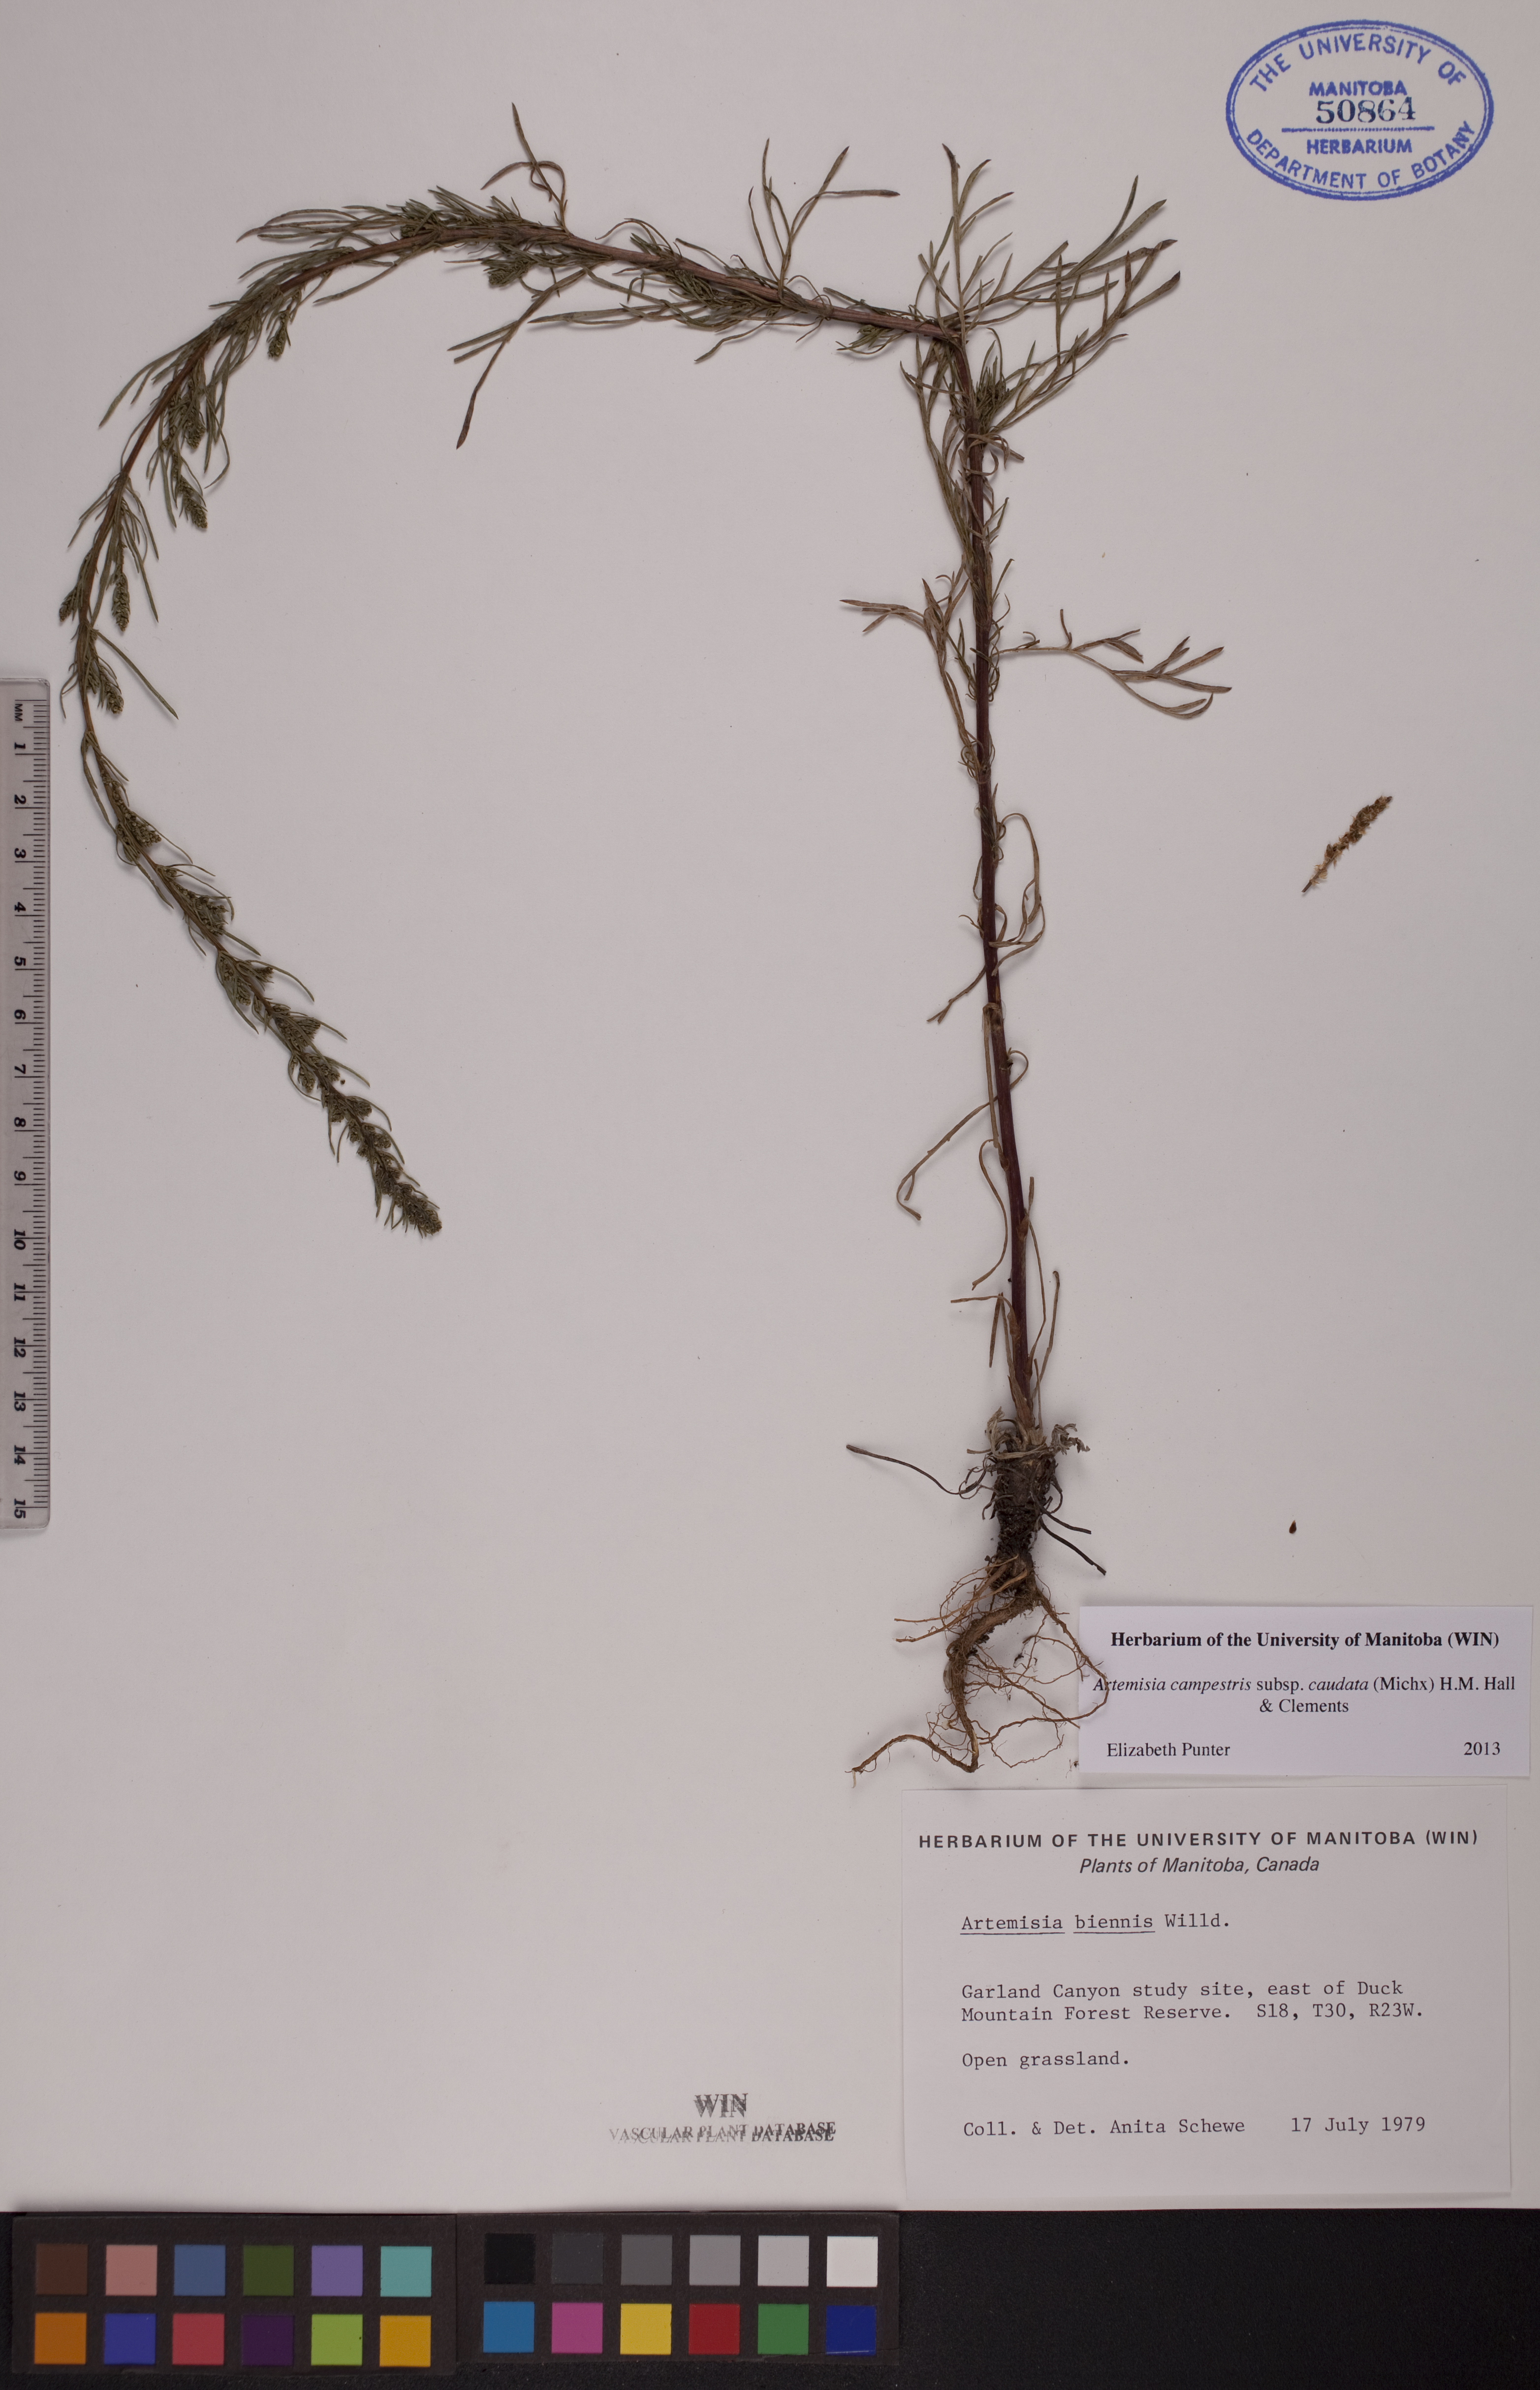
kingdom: Plantae
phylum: Tracheophyta
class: Magnoliopsida
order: Asterales
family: Asteraceae
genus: Artemisia
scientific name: Artemisia campestris
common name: Field wormwood
